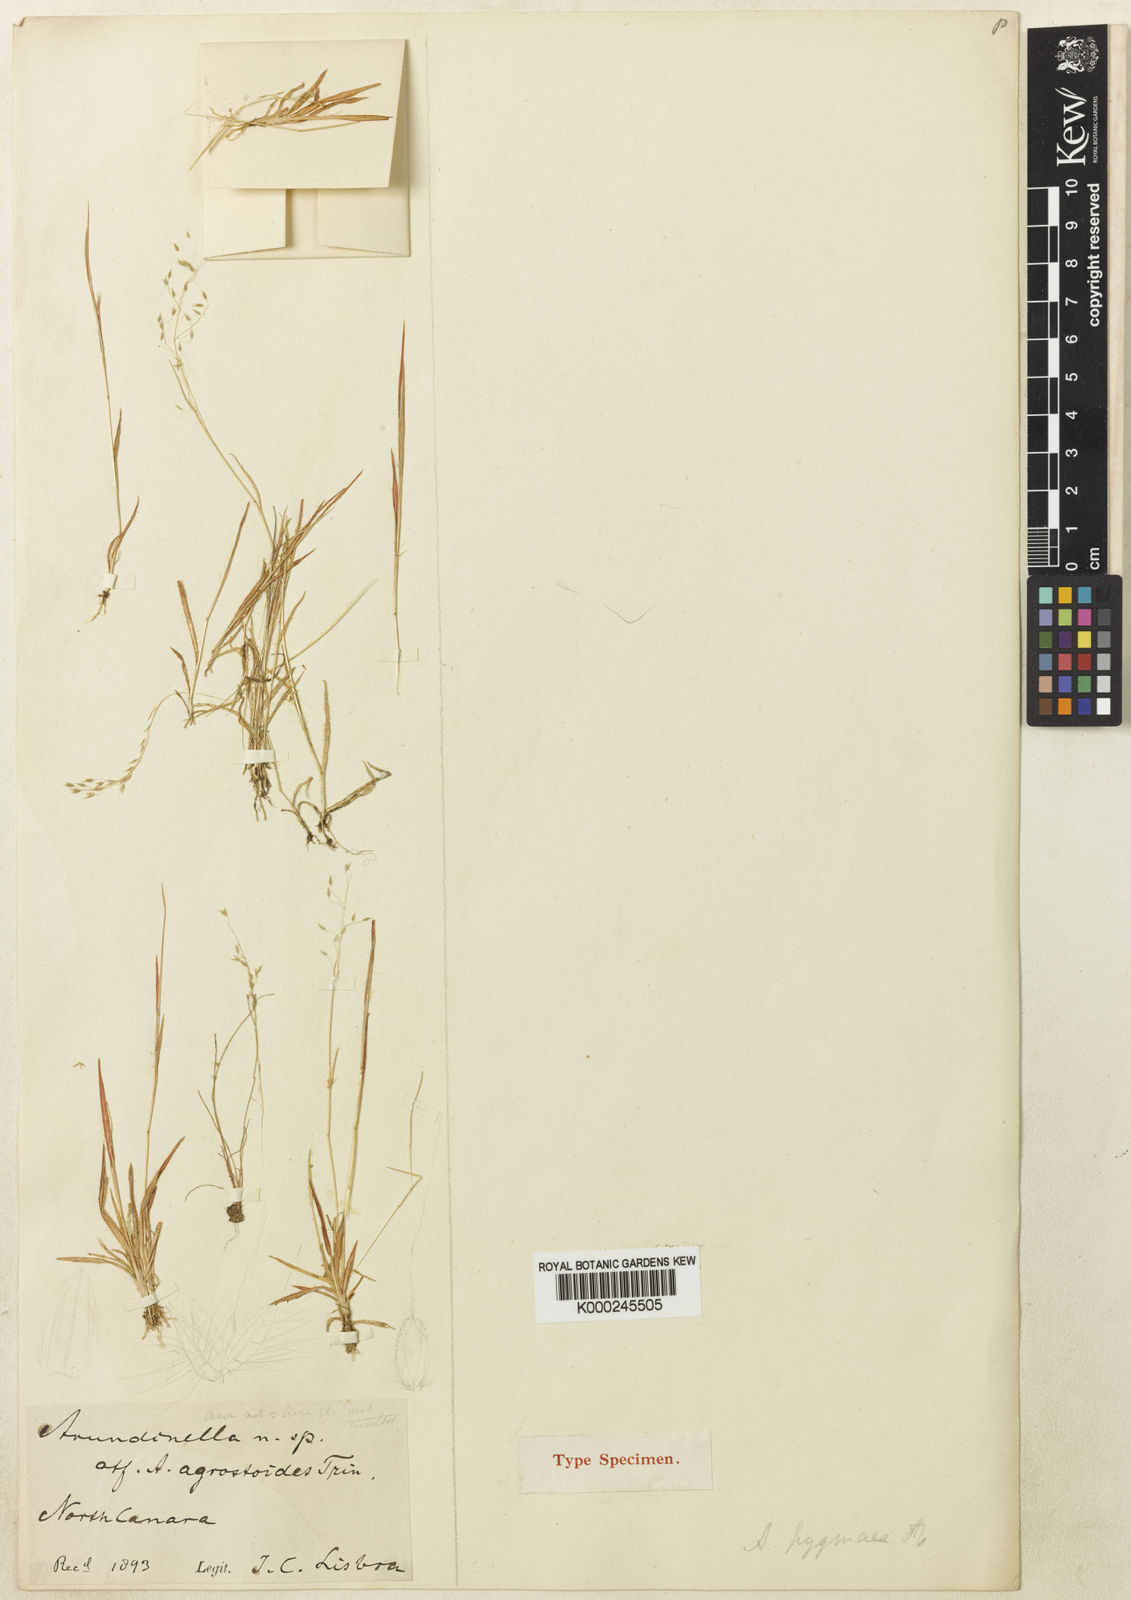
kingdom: Plantae
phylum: Tracheophyta
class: Liliopsida
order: Poales
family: Poaceae
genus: Arundinella
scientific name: Arundinella metzii
